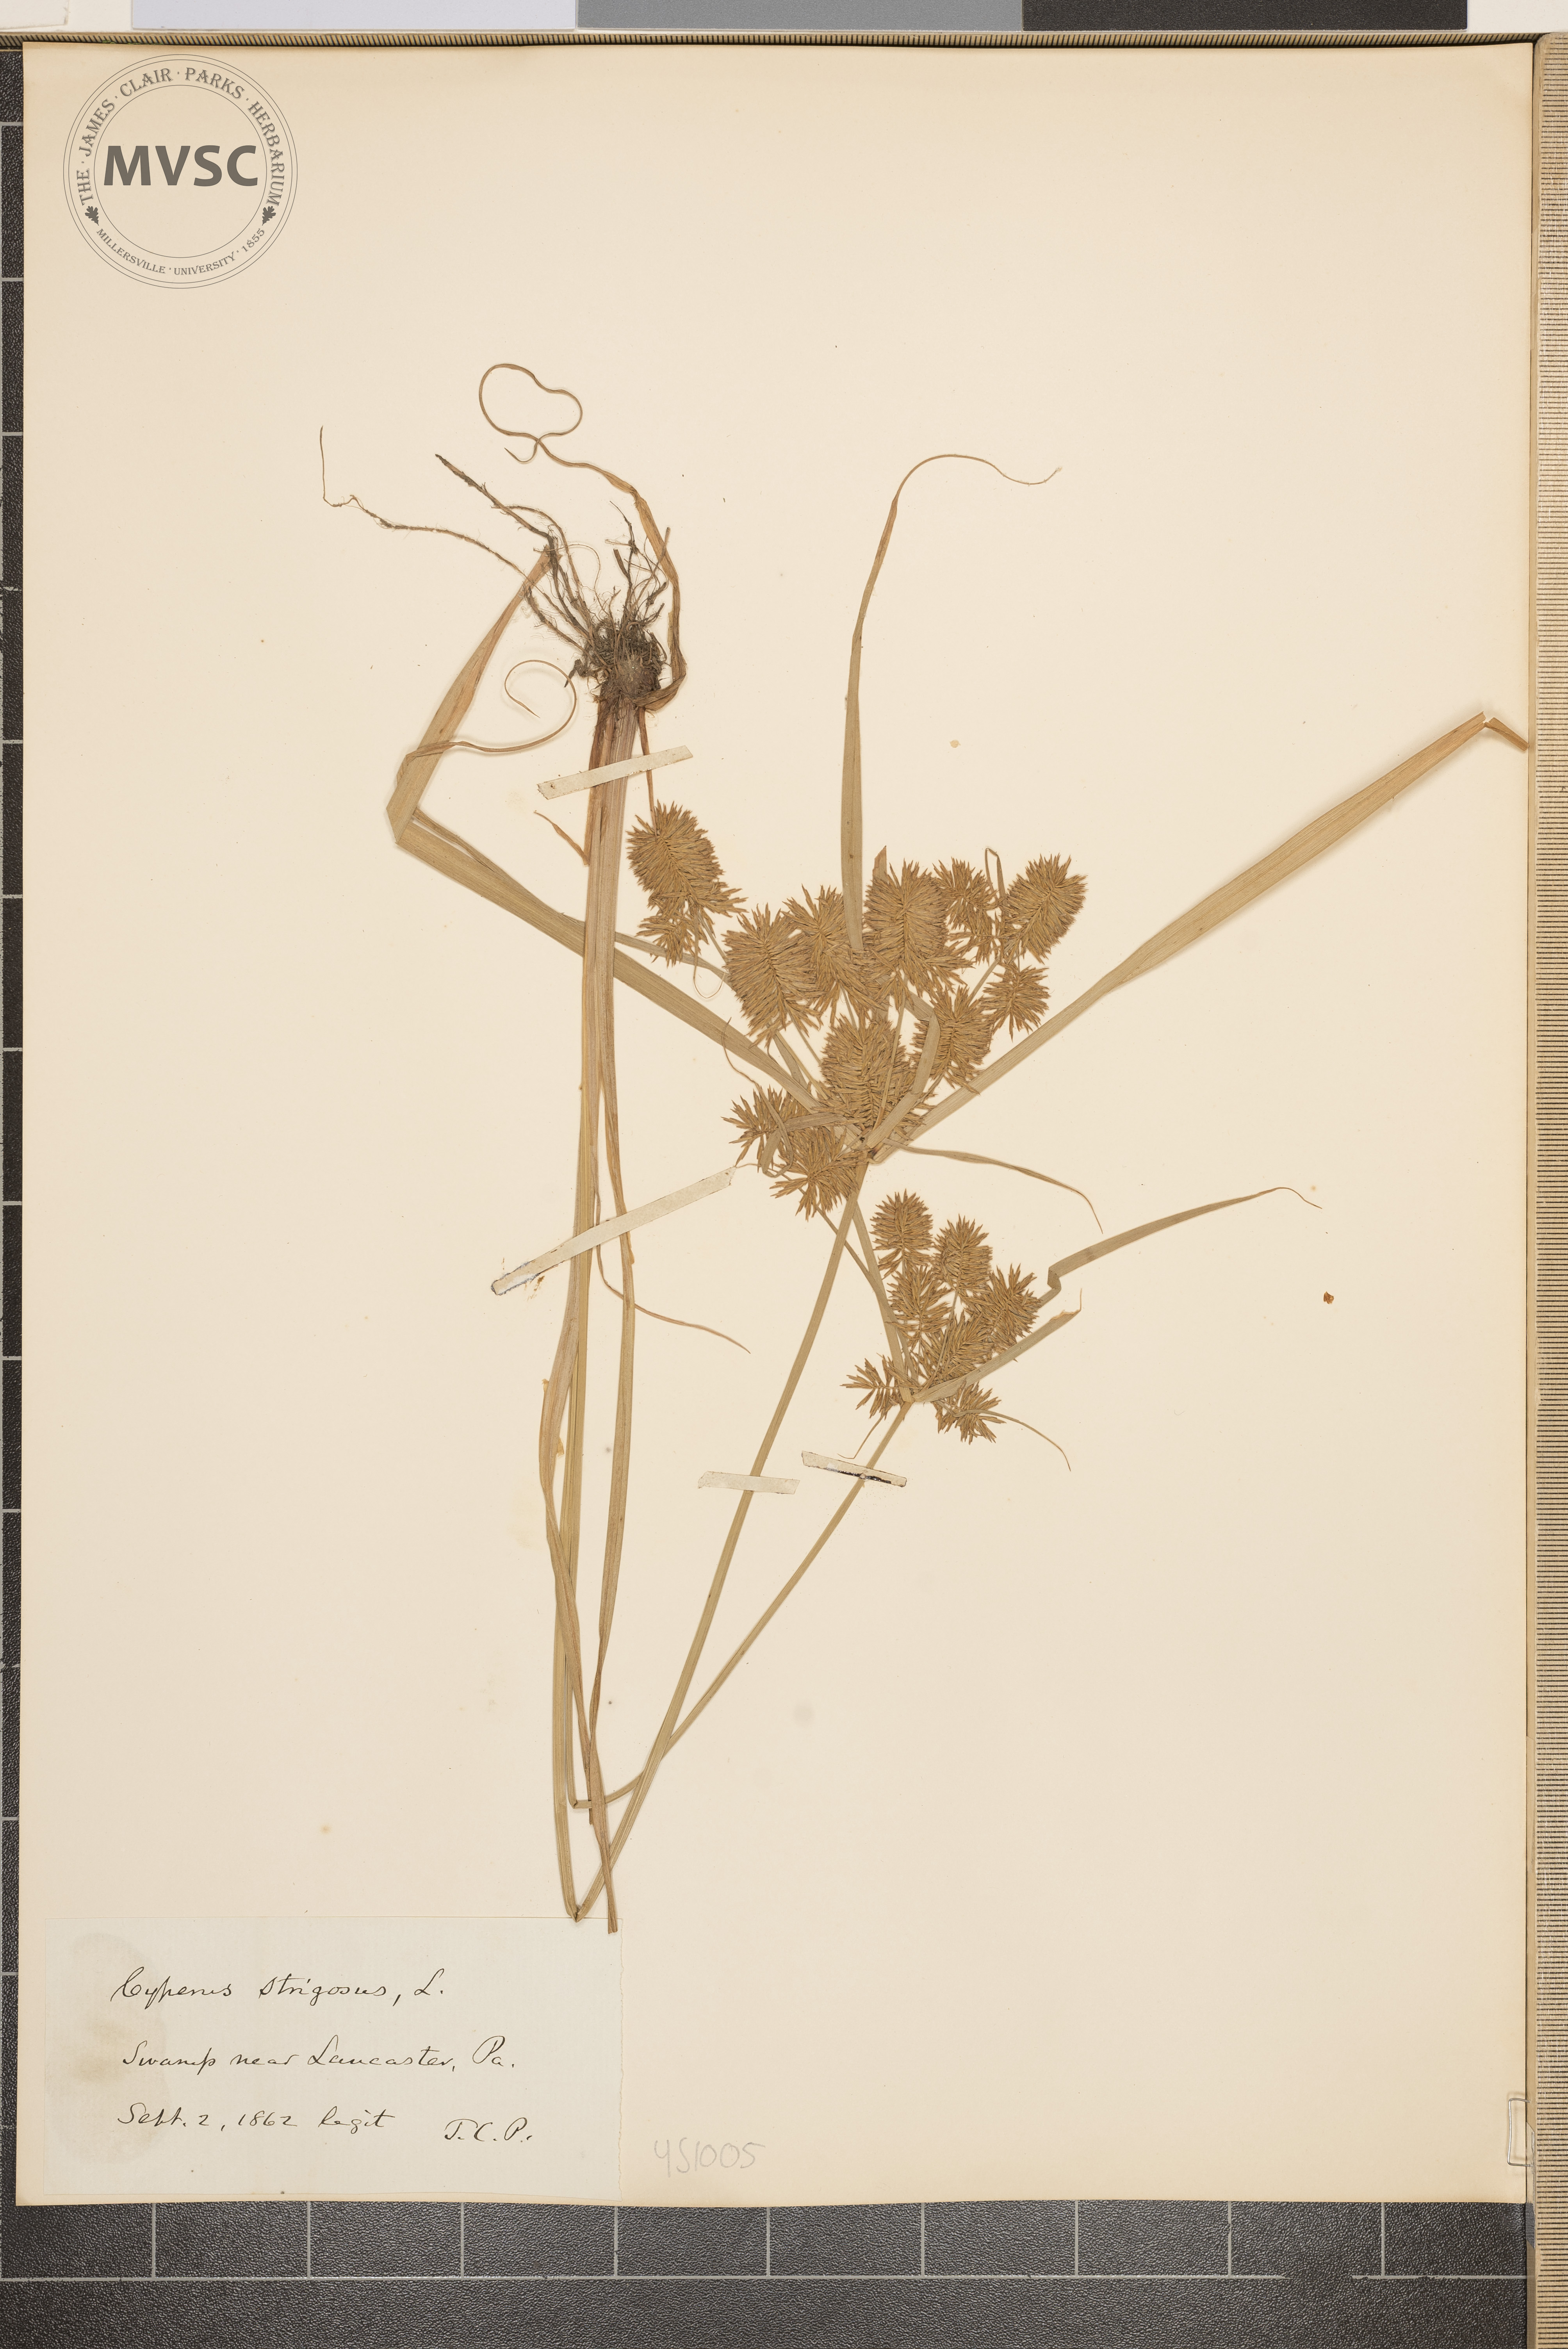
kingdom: Plantae
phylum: Tracheophyta
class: Liliopsida
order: Poales
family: Cyperaceae
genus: Cyperus
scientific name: Cyperus strigosus
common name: False nutsedge
